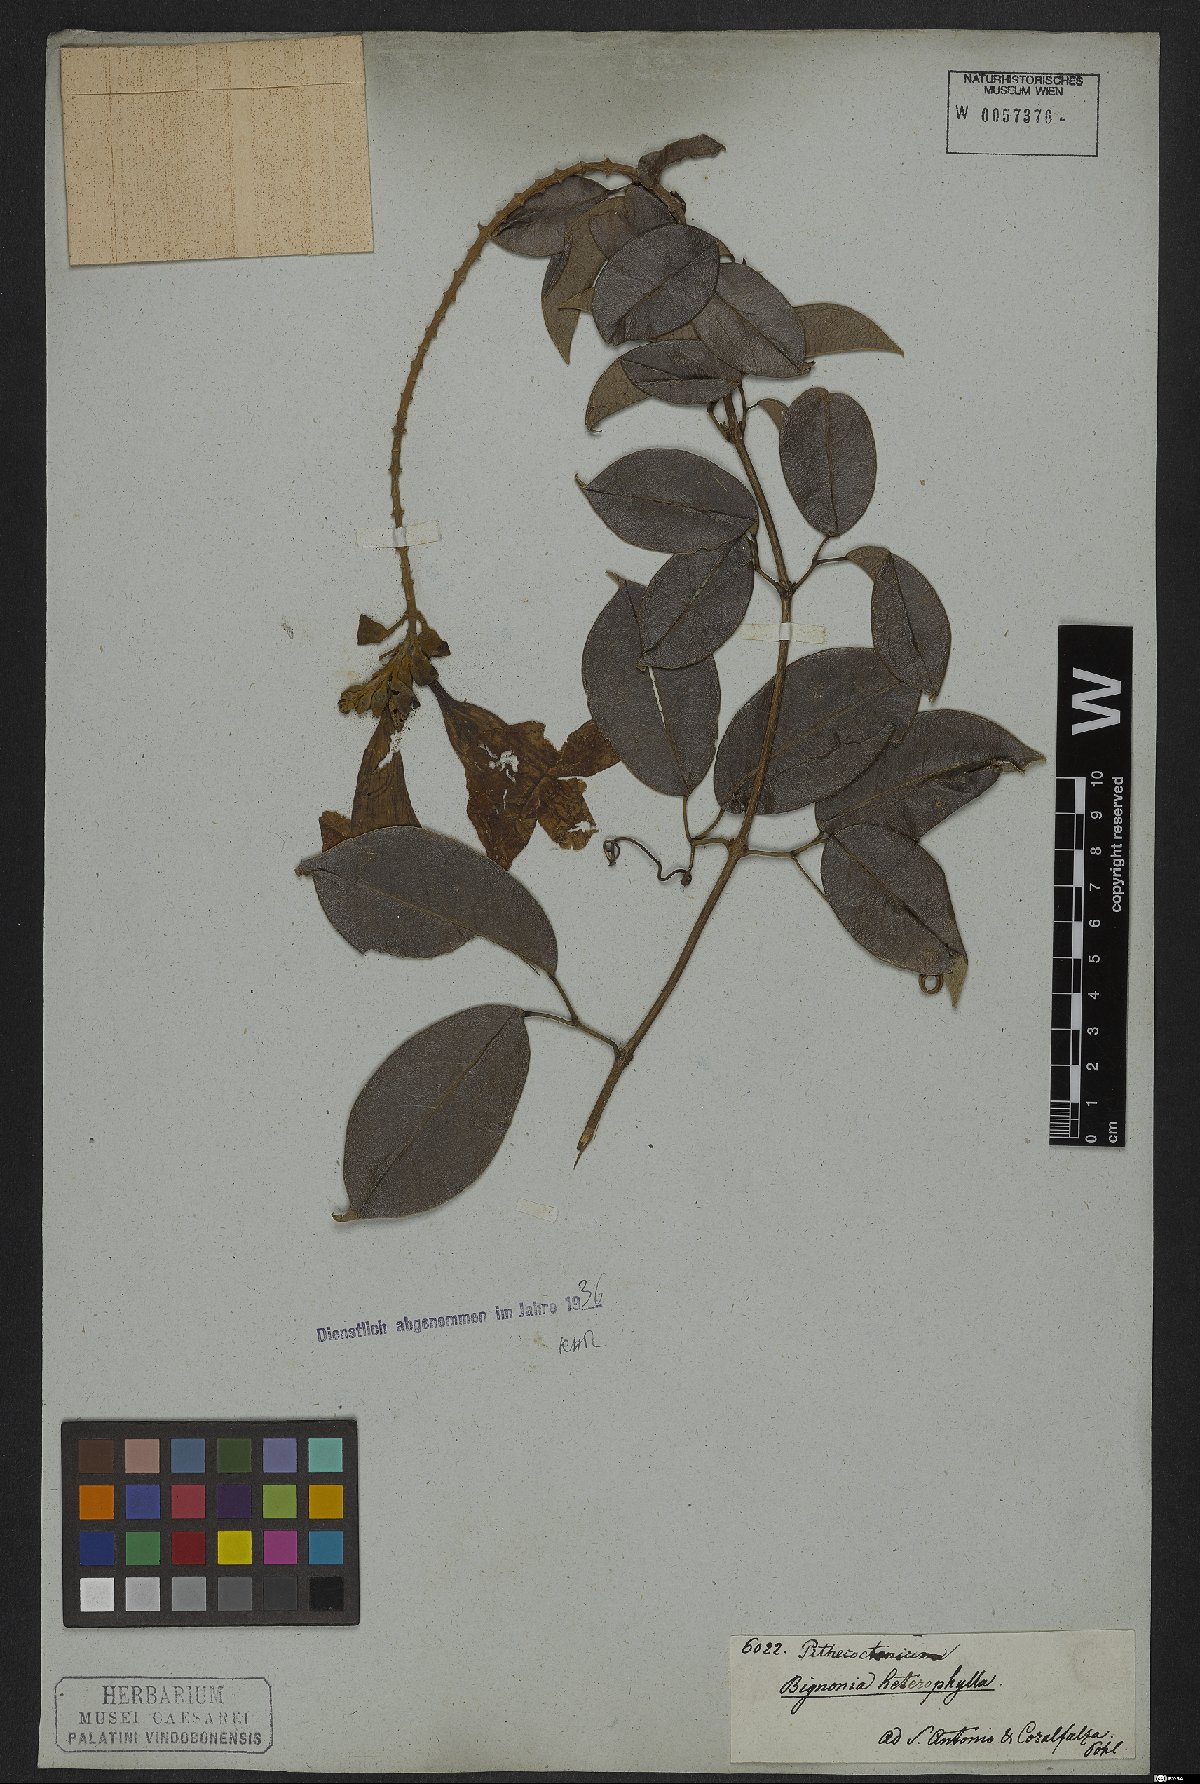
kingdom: Plantae
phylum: Tracheophyta
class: Magnoliopsida
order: Lamiales
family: Bignoniaceae
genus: Adenocalymma
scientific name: Adenocalymma marginatum
